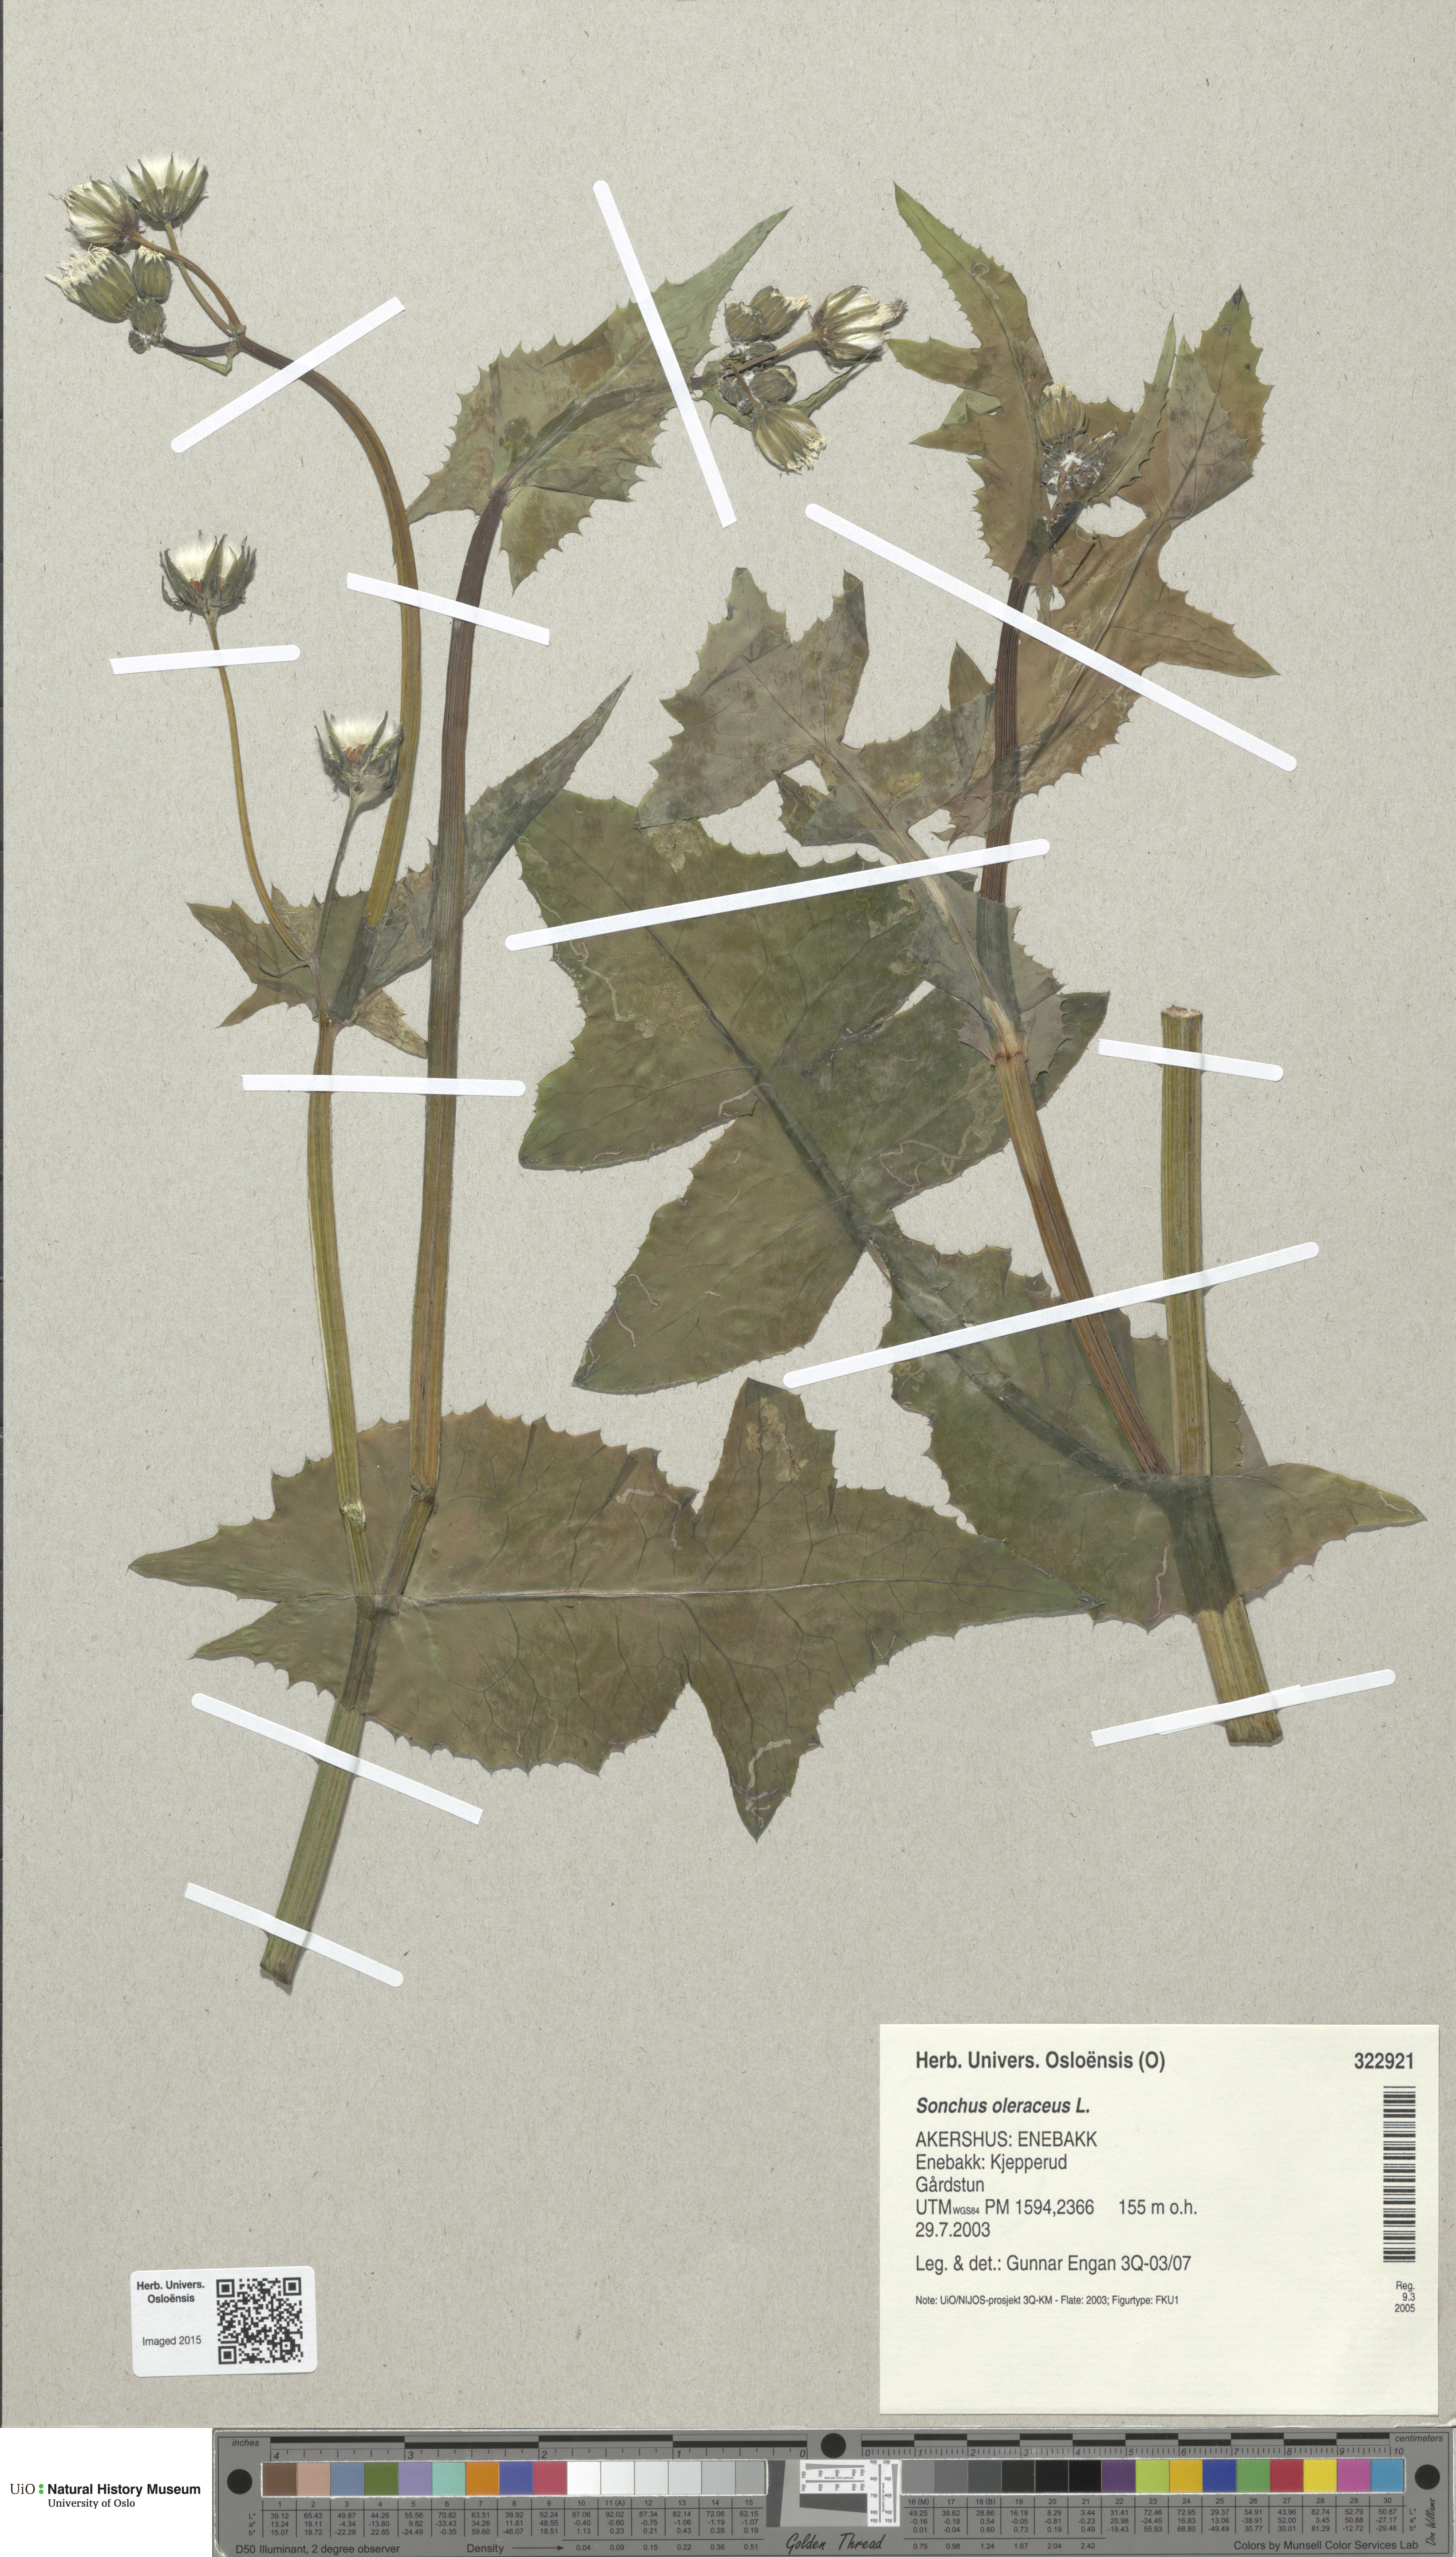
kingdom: Plantae
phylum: Tracheophyta
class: Magnoliopsida
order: Asterales
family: Asteraceae
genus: Sonchus
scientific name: Sonchus oleraceus
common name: Common sowthistle
